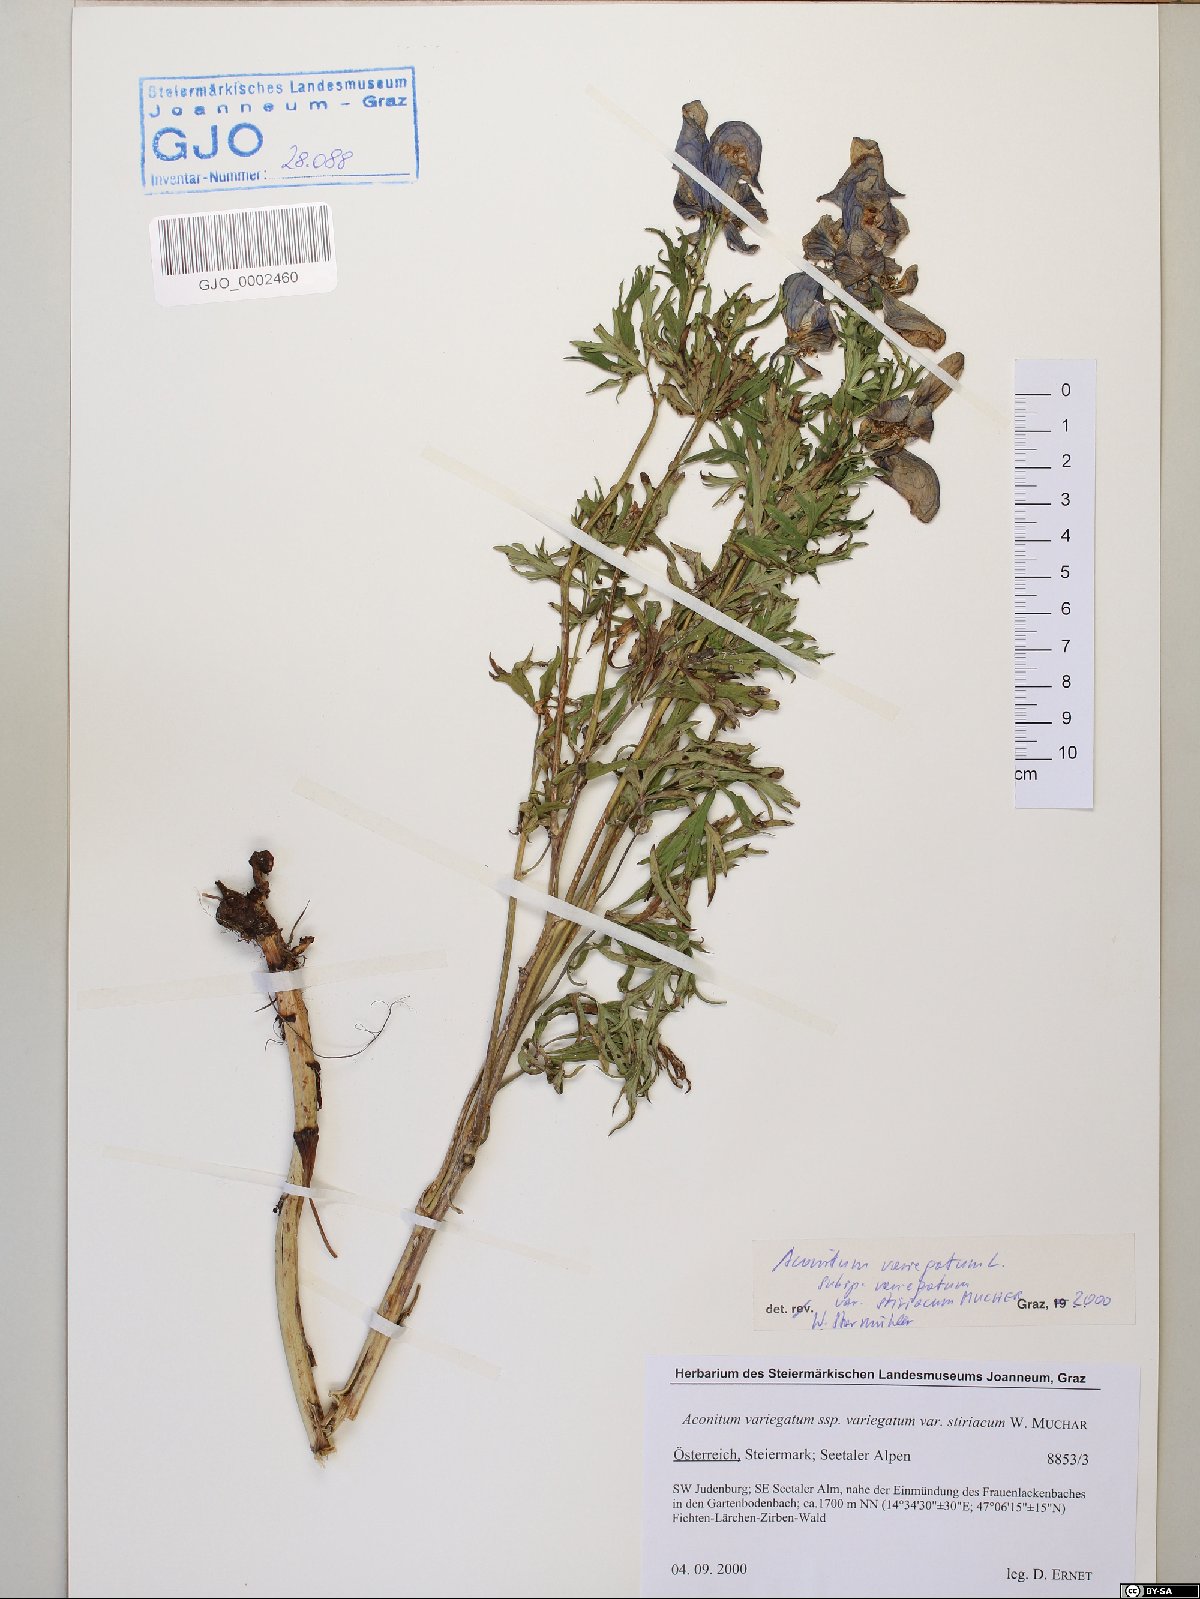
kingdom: Plantae
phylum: Tracheophyta
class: Magnoliopsida
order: Ranunculales
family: Ranunculaceae
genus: Aconitum
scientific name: Aconitum variegatum
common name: Manchurian monkshood
